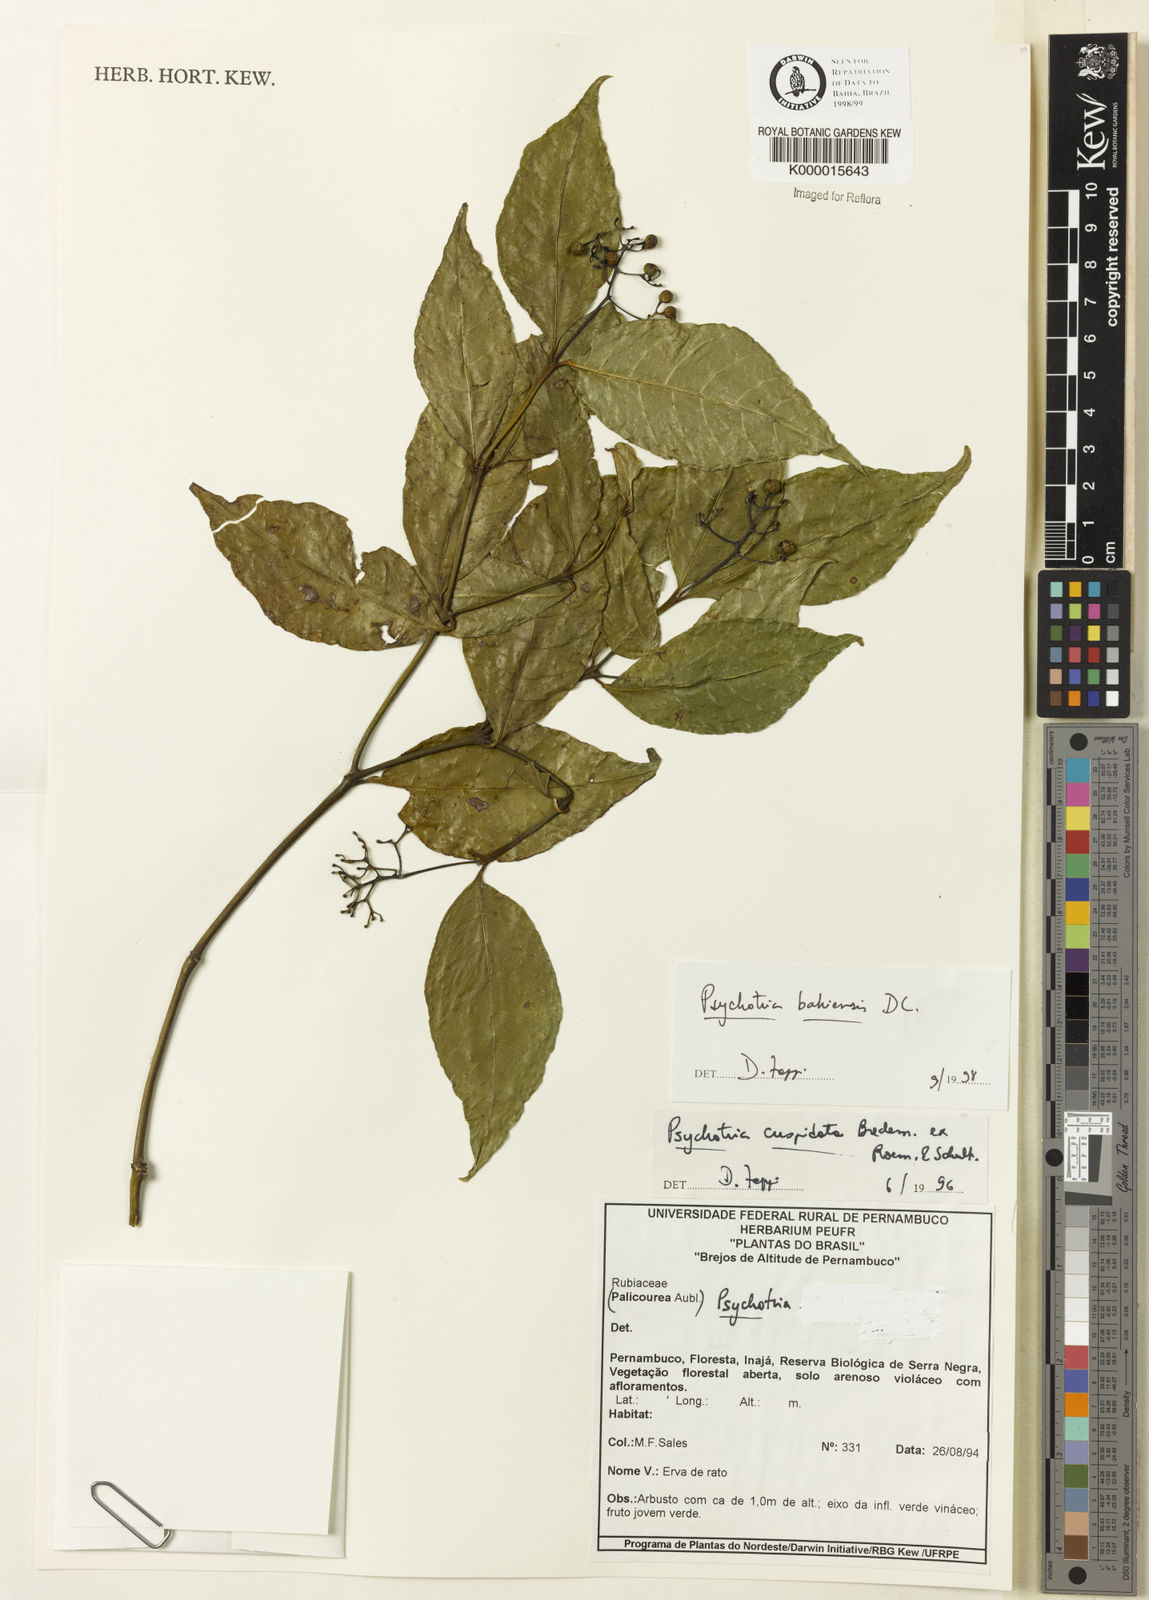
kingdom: Plantae
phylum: Tracheophyta
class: Magnoliopsida
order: Gentianales
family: Rubiaceae
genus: Psychotria
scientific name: Psychotria bahiensis
